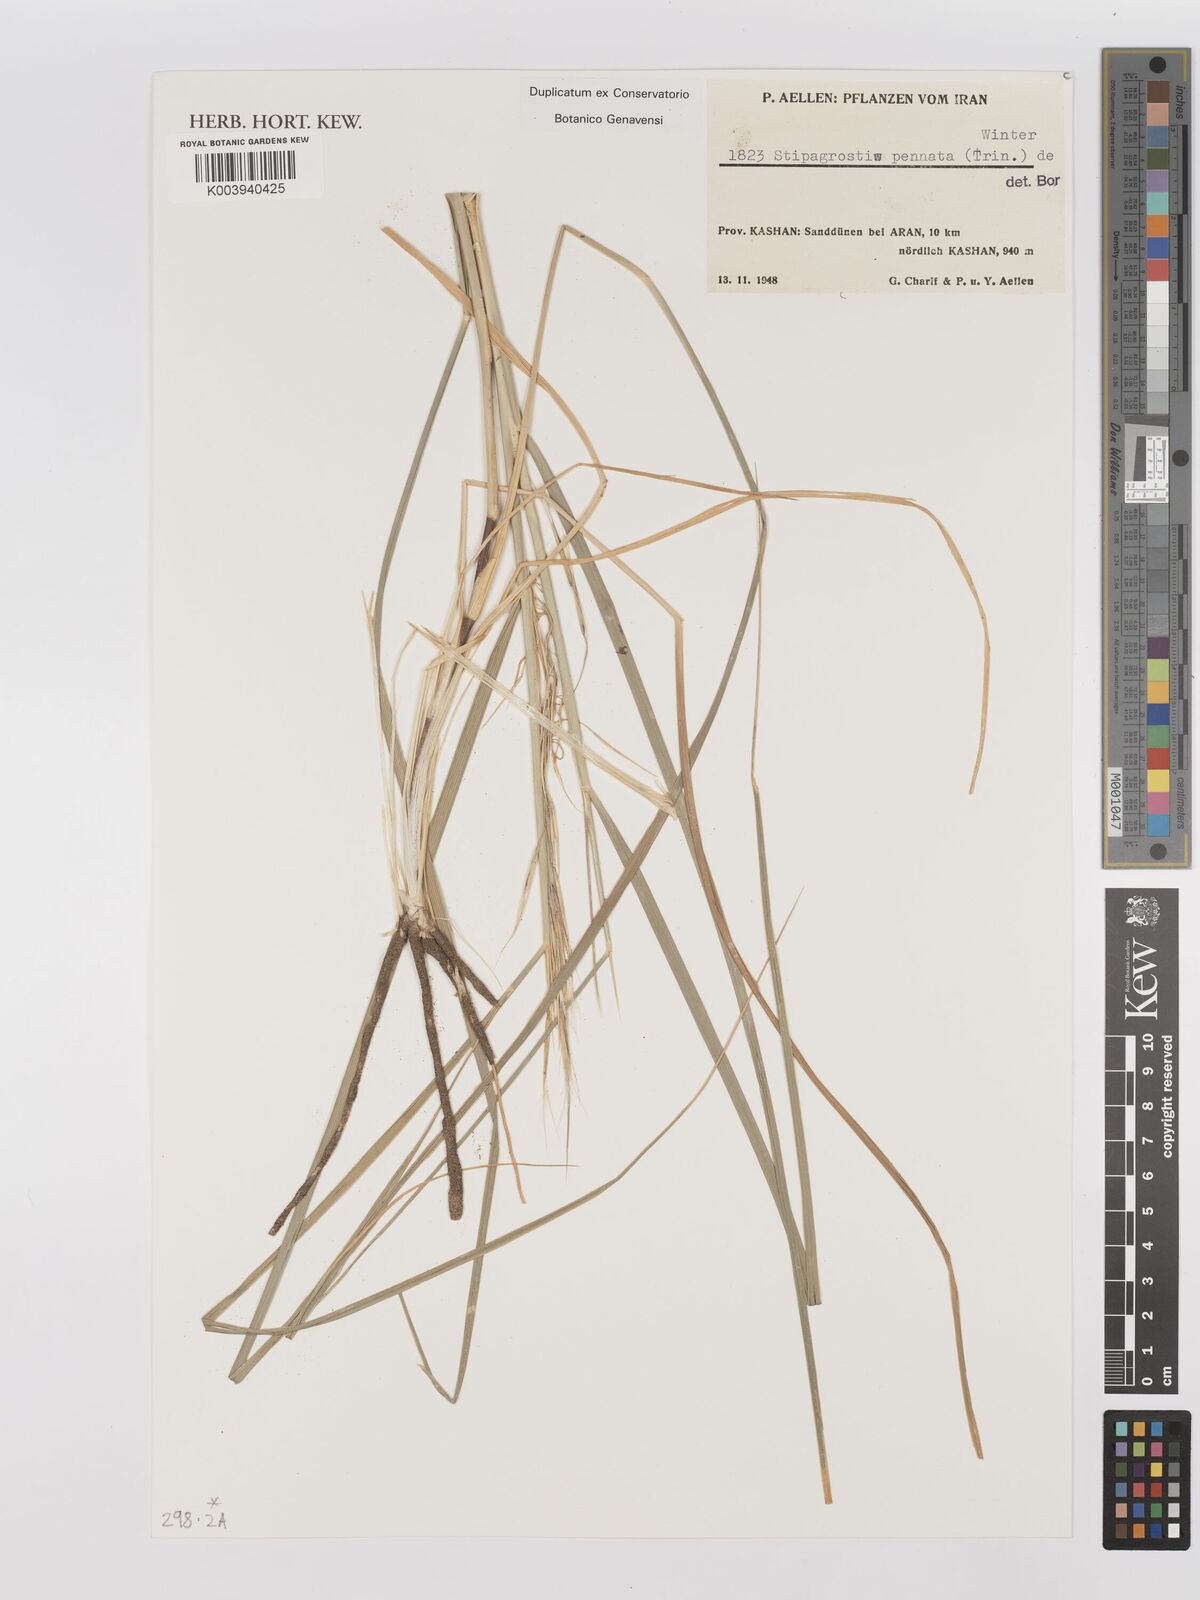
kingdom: Plantae
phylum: Tracheophyta
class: Liliopsida
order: Poales
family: Poaceae
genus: Stipagrostis
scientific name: Stipagrostis pennata
